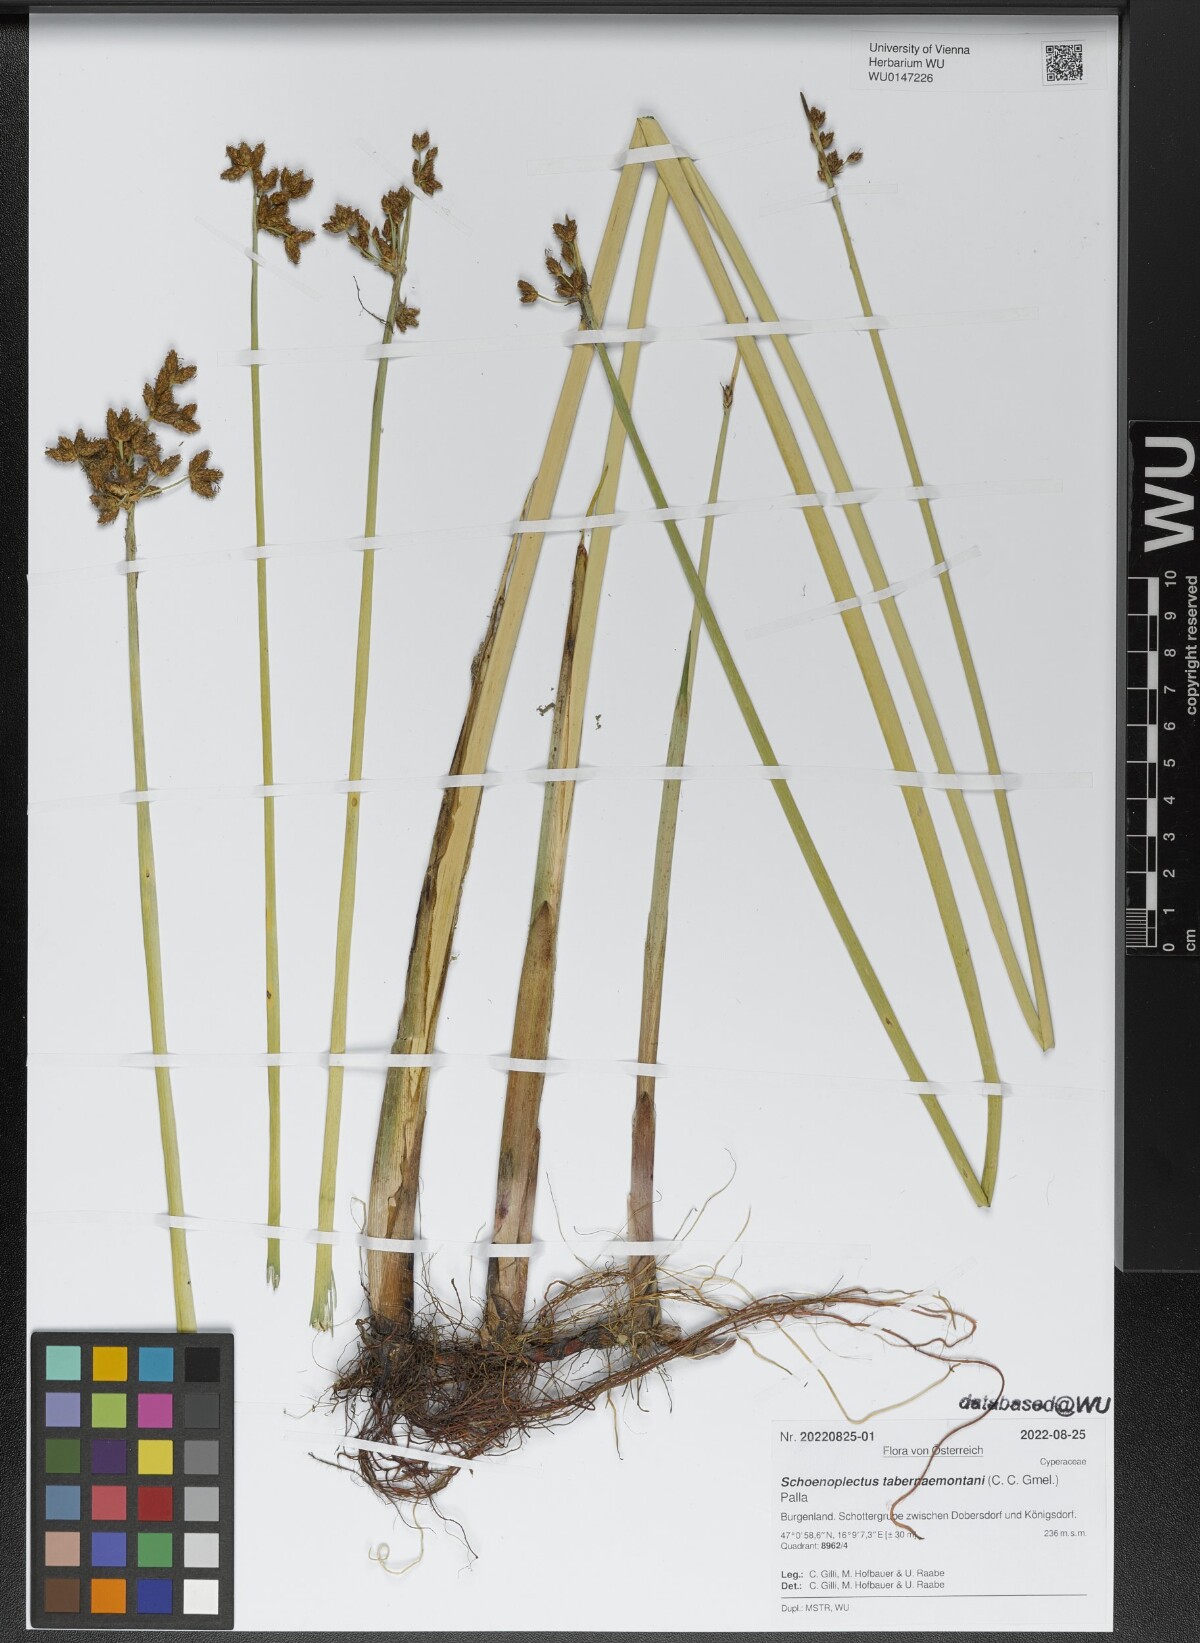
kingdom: Plantae
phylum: Tracheophyta
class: Liliopsida
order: Poales
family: Cyperaceae
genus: Schoenoplectus
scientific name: Schoenoplectus tabernaemontani
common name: Grey club-rush
